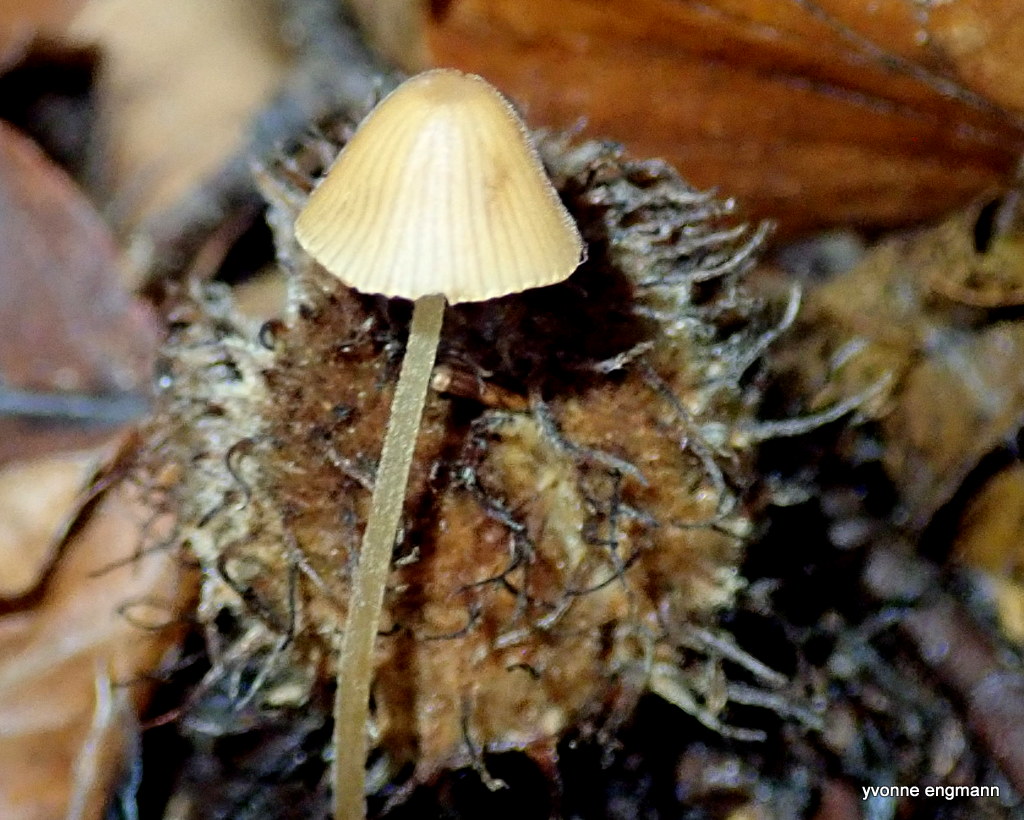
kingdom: Fungi
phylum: Basidiomycota
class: Agaricomycetes
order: Agaricales
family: Bolbitiaceae
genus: Conocybe
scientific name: Conocybe
